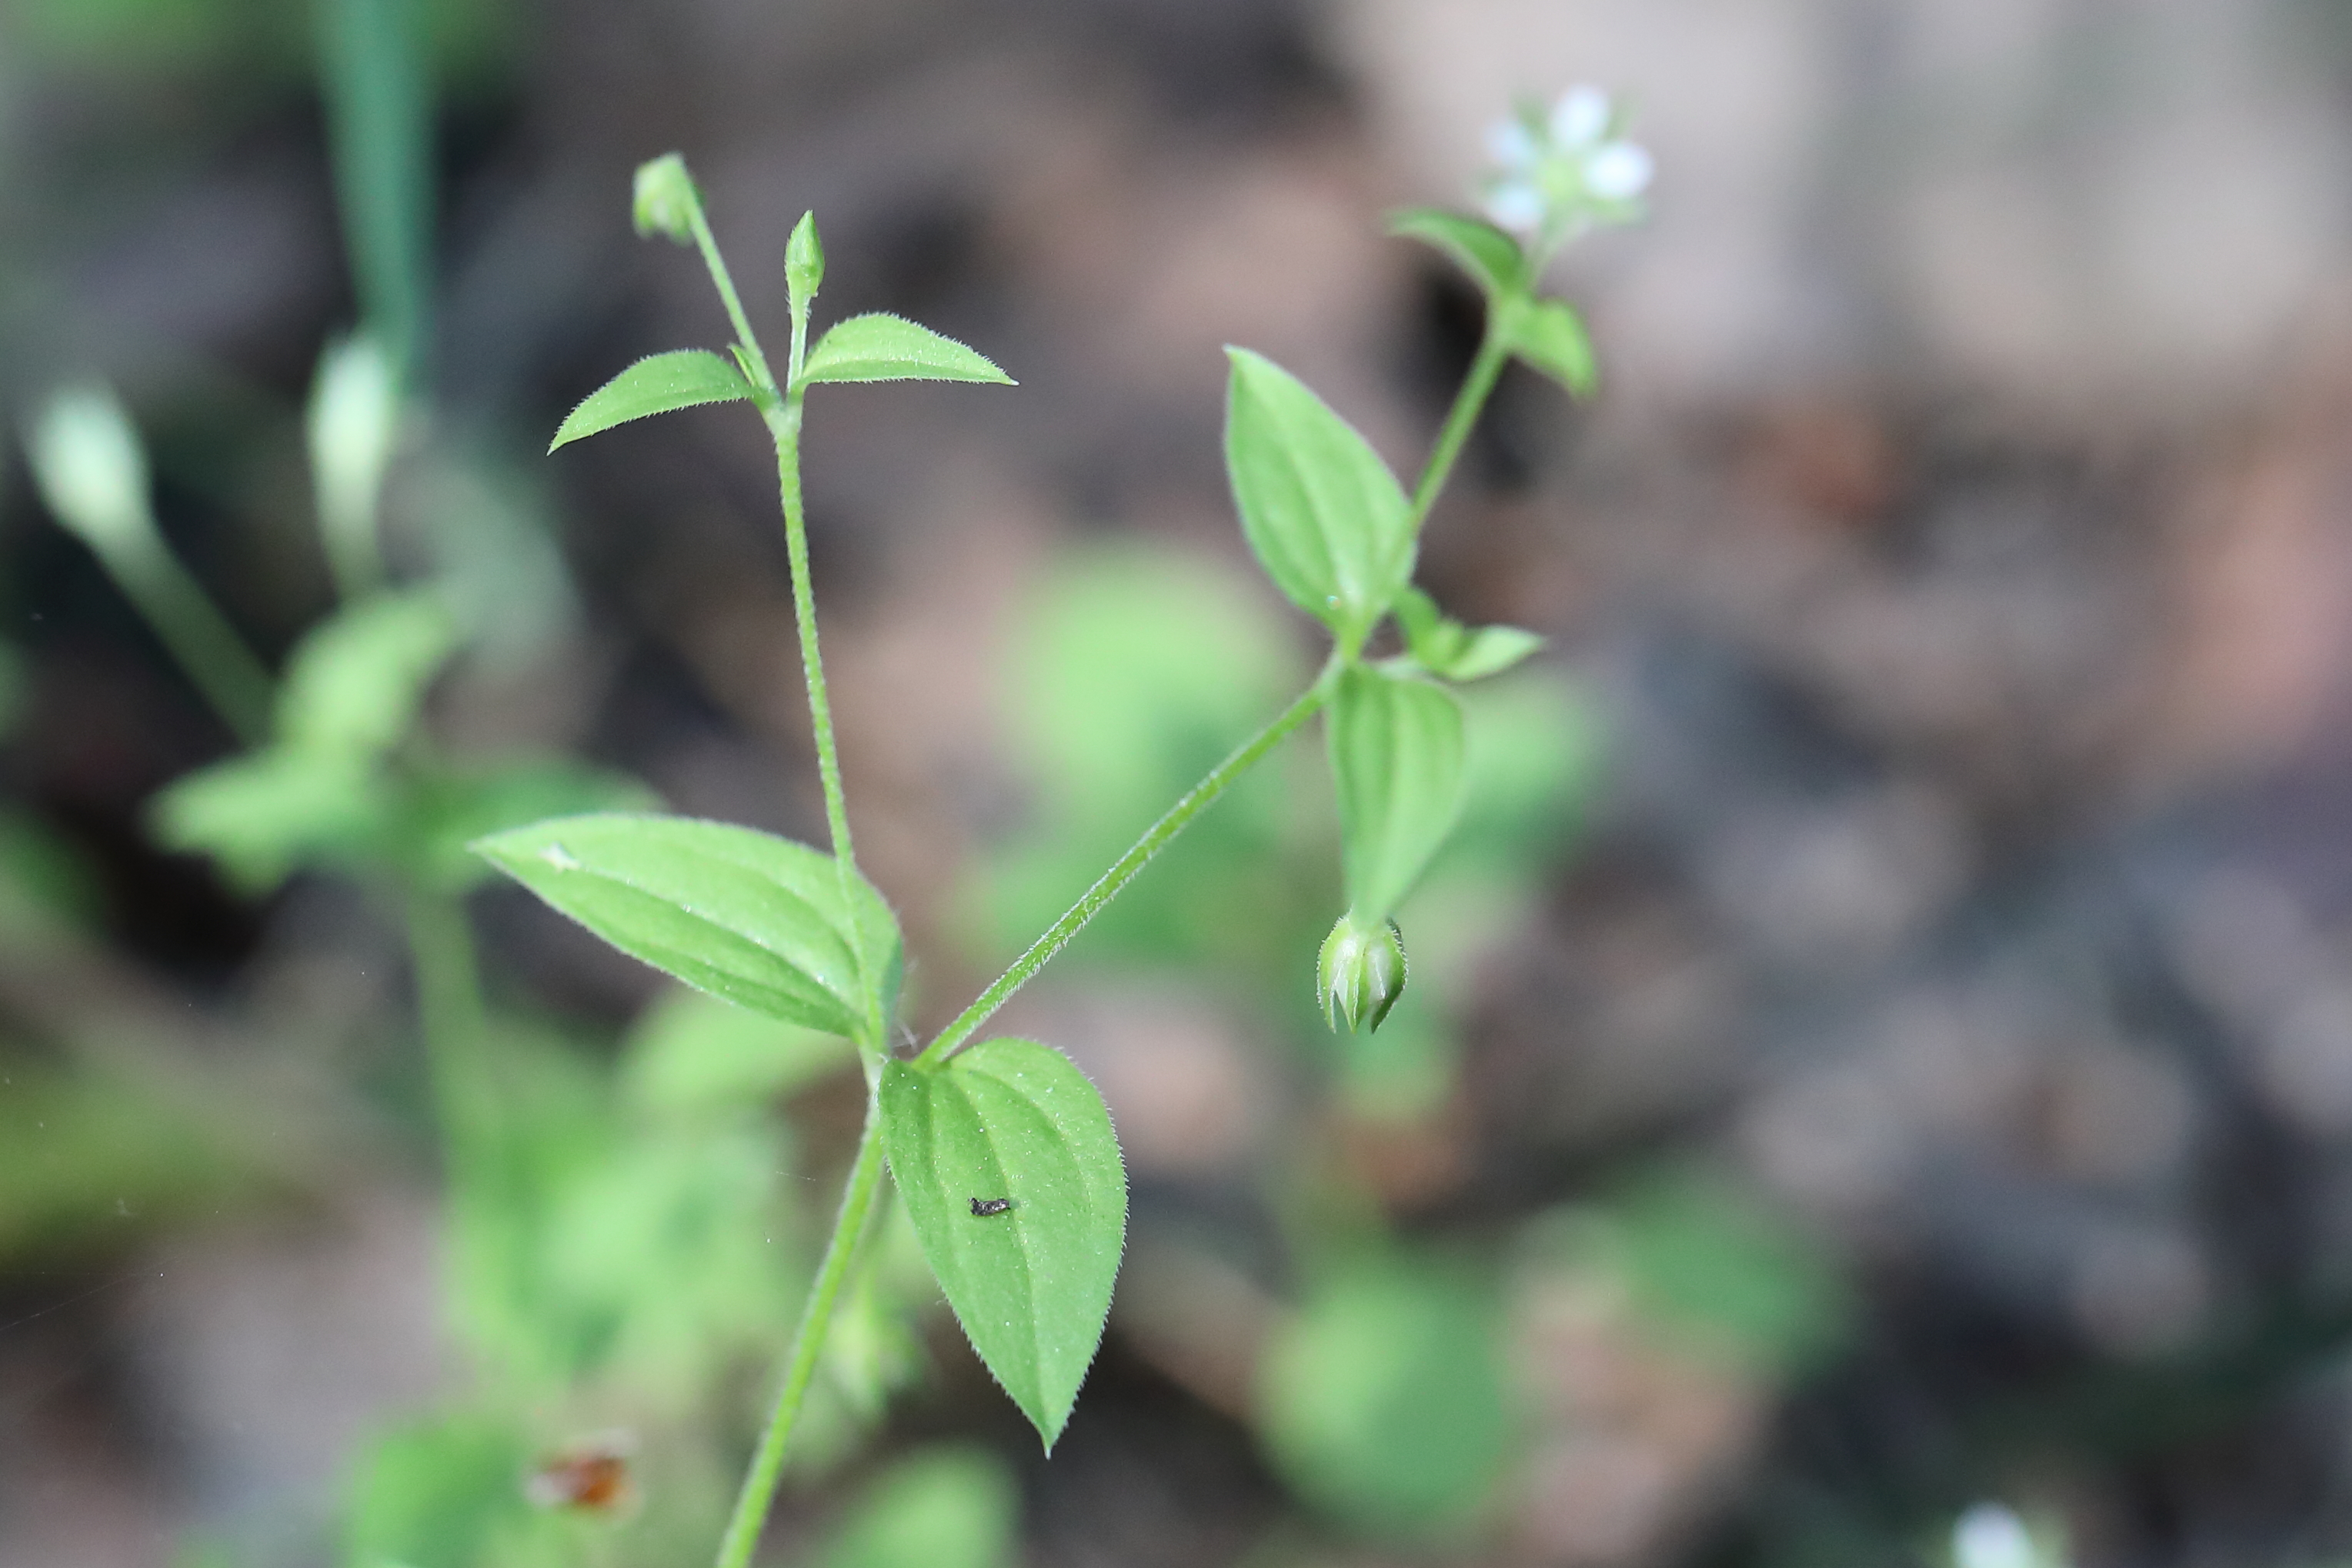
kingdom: Plantae
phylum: Tracheophyta
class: Magnoliopsida
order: Caryophyllales
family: Caryophyllaceae
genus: Moehringia
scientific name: Moehringia trinervia
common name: Three-nerved sandwort
